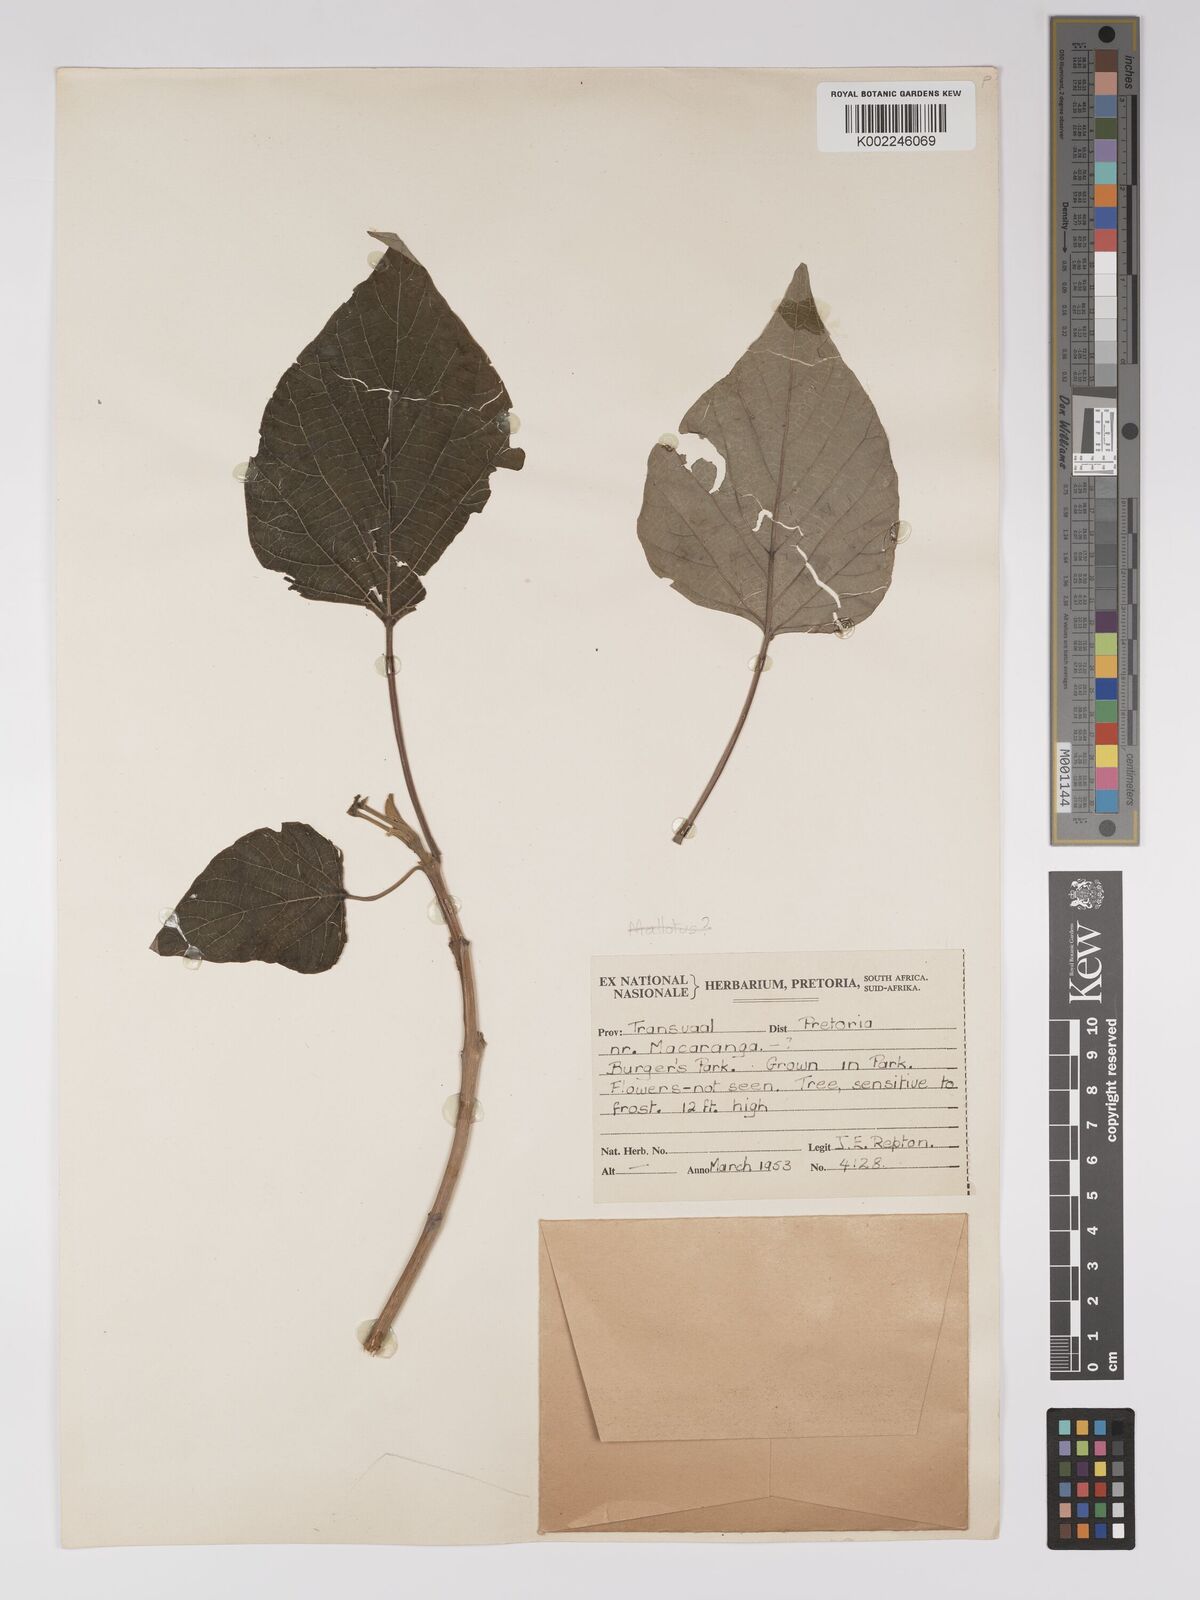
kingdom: Plantae
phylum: Tracheophyta
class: Magnoliopsida
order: Malpighiales
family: Euphorbiaceae
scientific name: Euphorbiaceae
